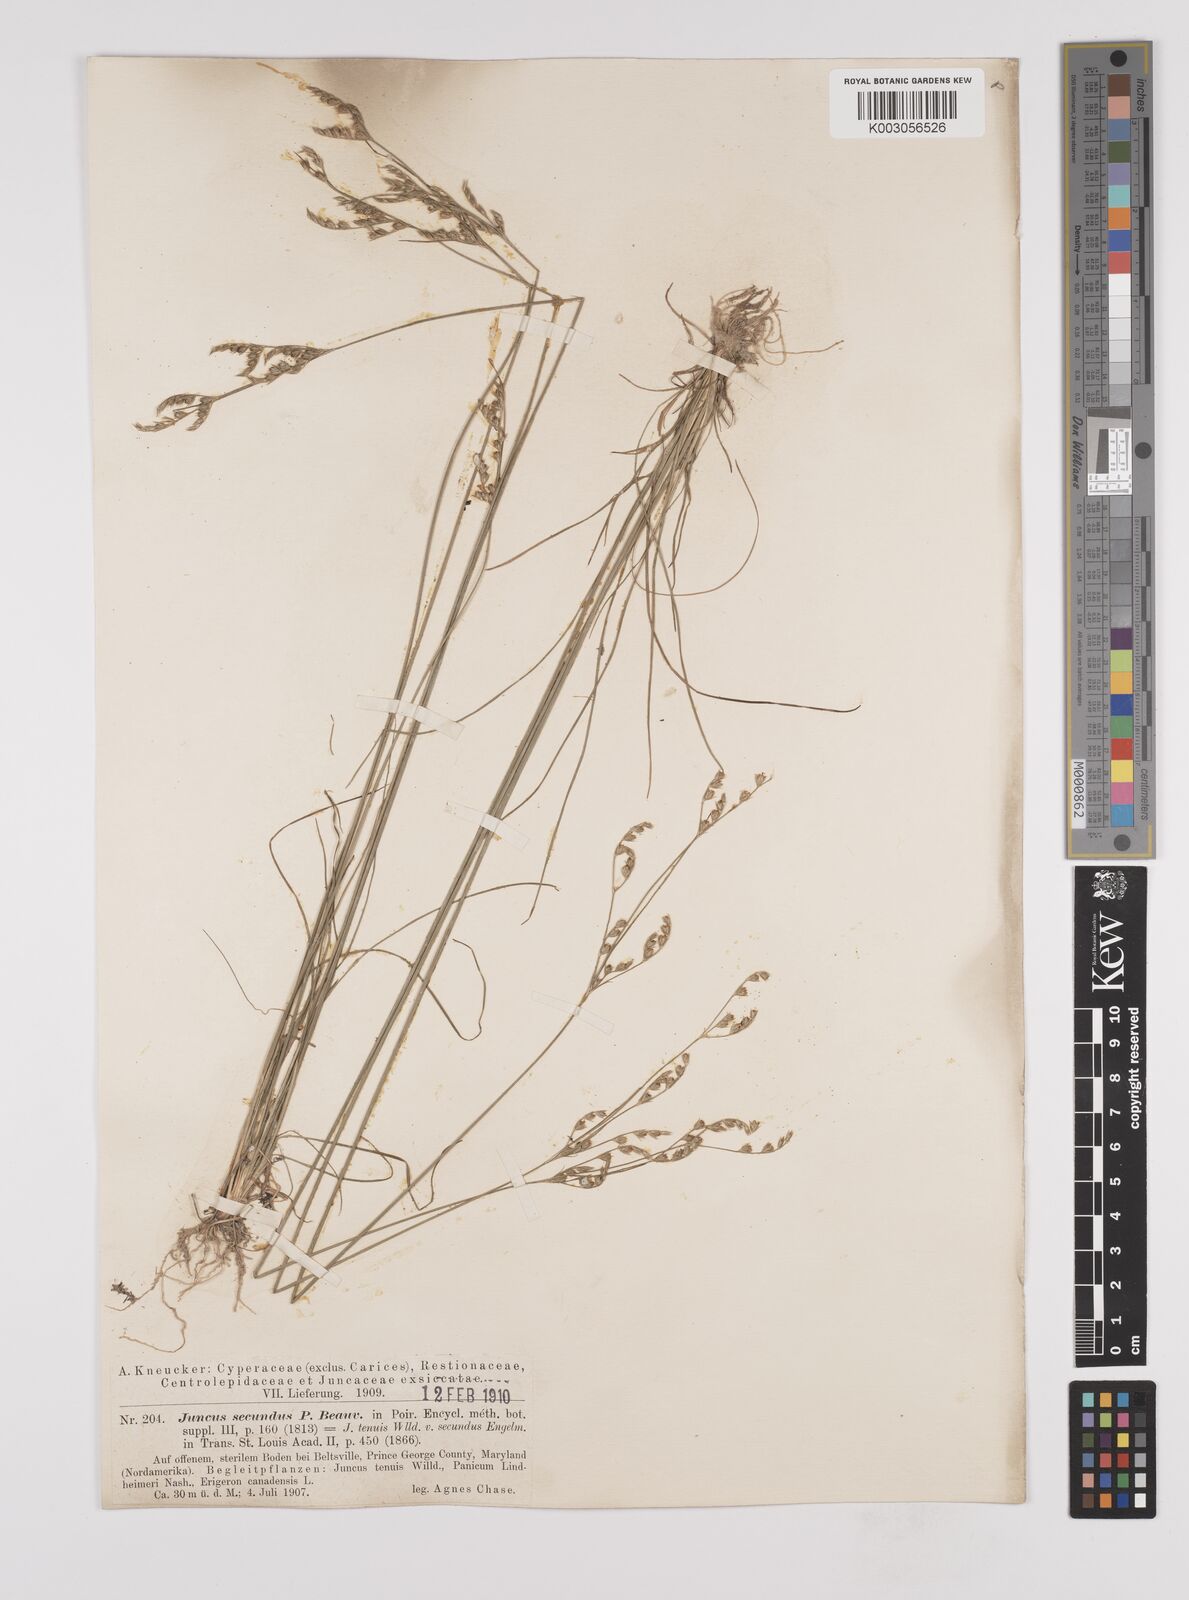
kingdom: Plantae
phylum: Tracheophyta
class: Liliopsida
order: Poales
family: Juncaceae
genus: Juncus
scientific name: Juncus secundus
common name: Lopsided rush
